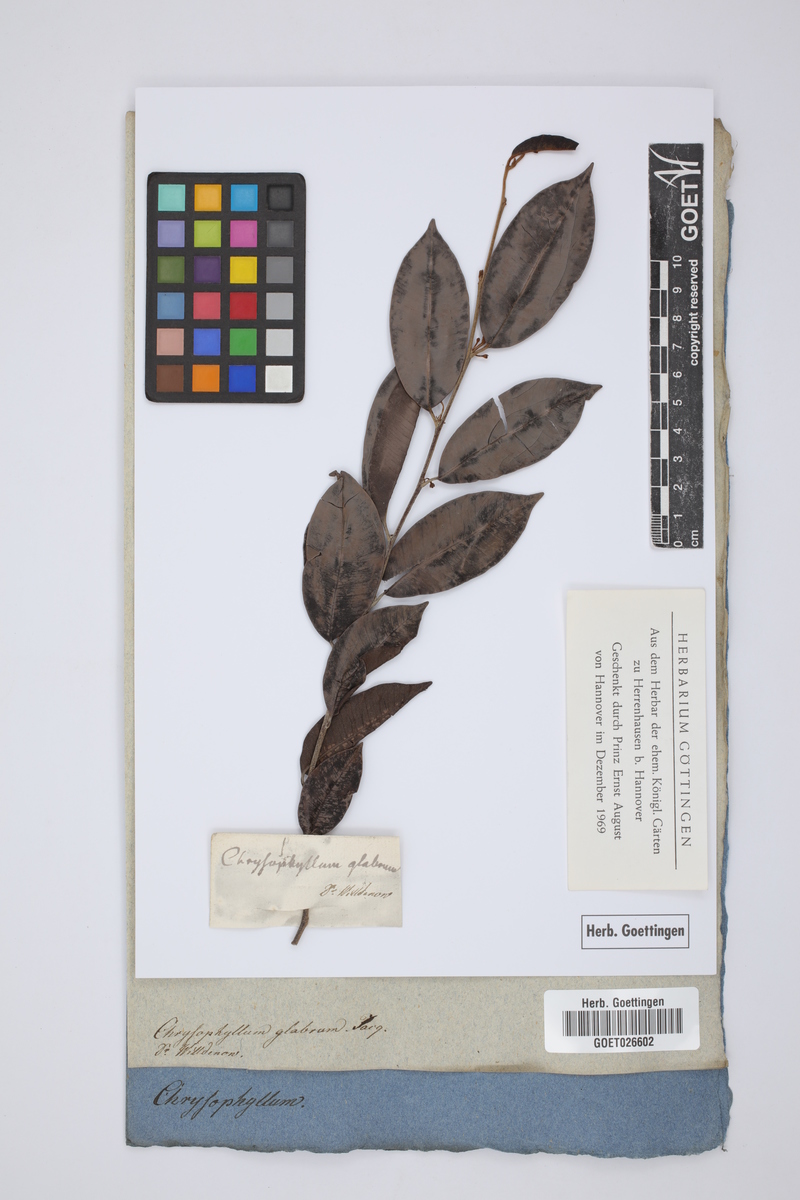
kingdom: Plantae
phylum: Tracheophyta
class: Magnoliopsida
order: Ericales
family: Sapotaceae
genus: Chrysophyllum
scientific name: Chrysophyllum argenteum
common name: Smooth star apple
